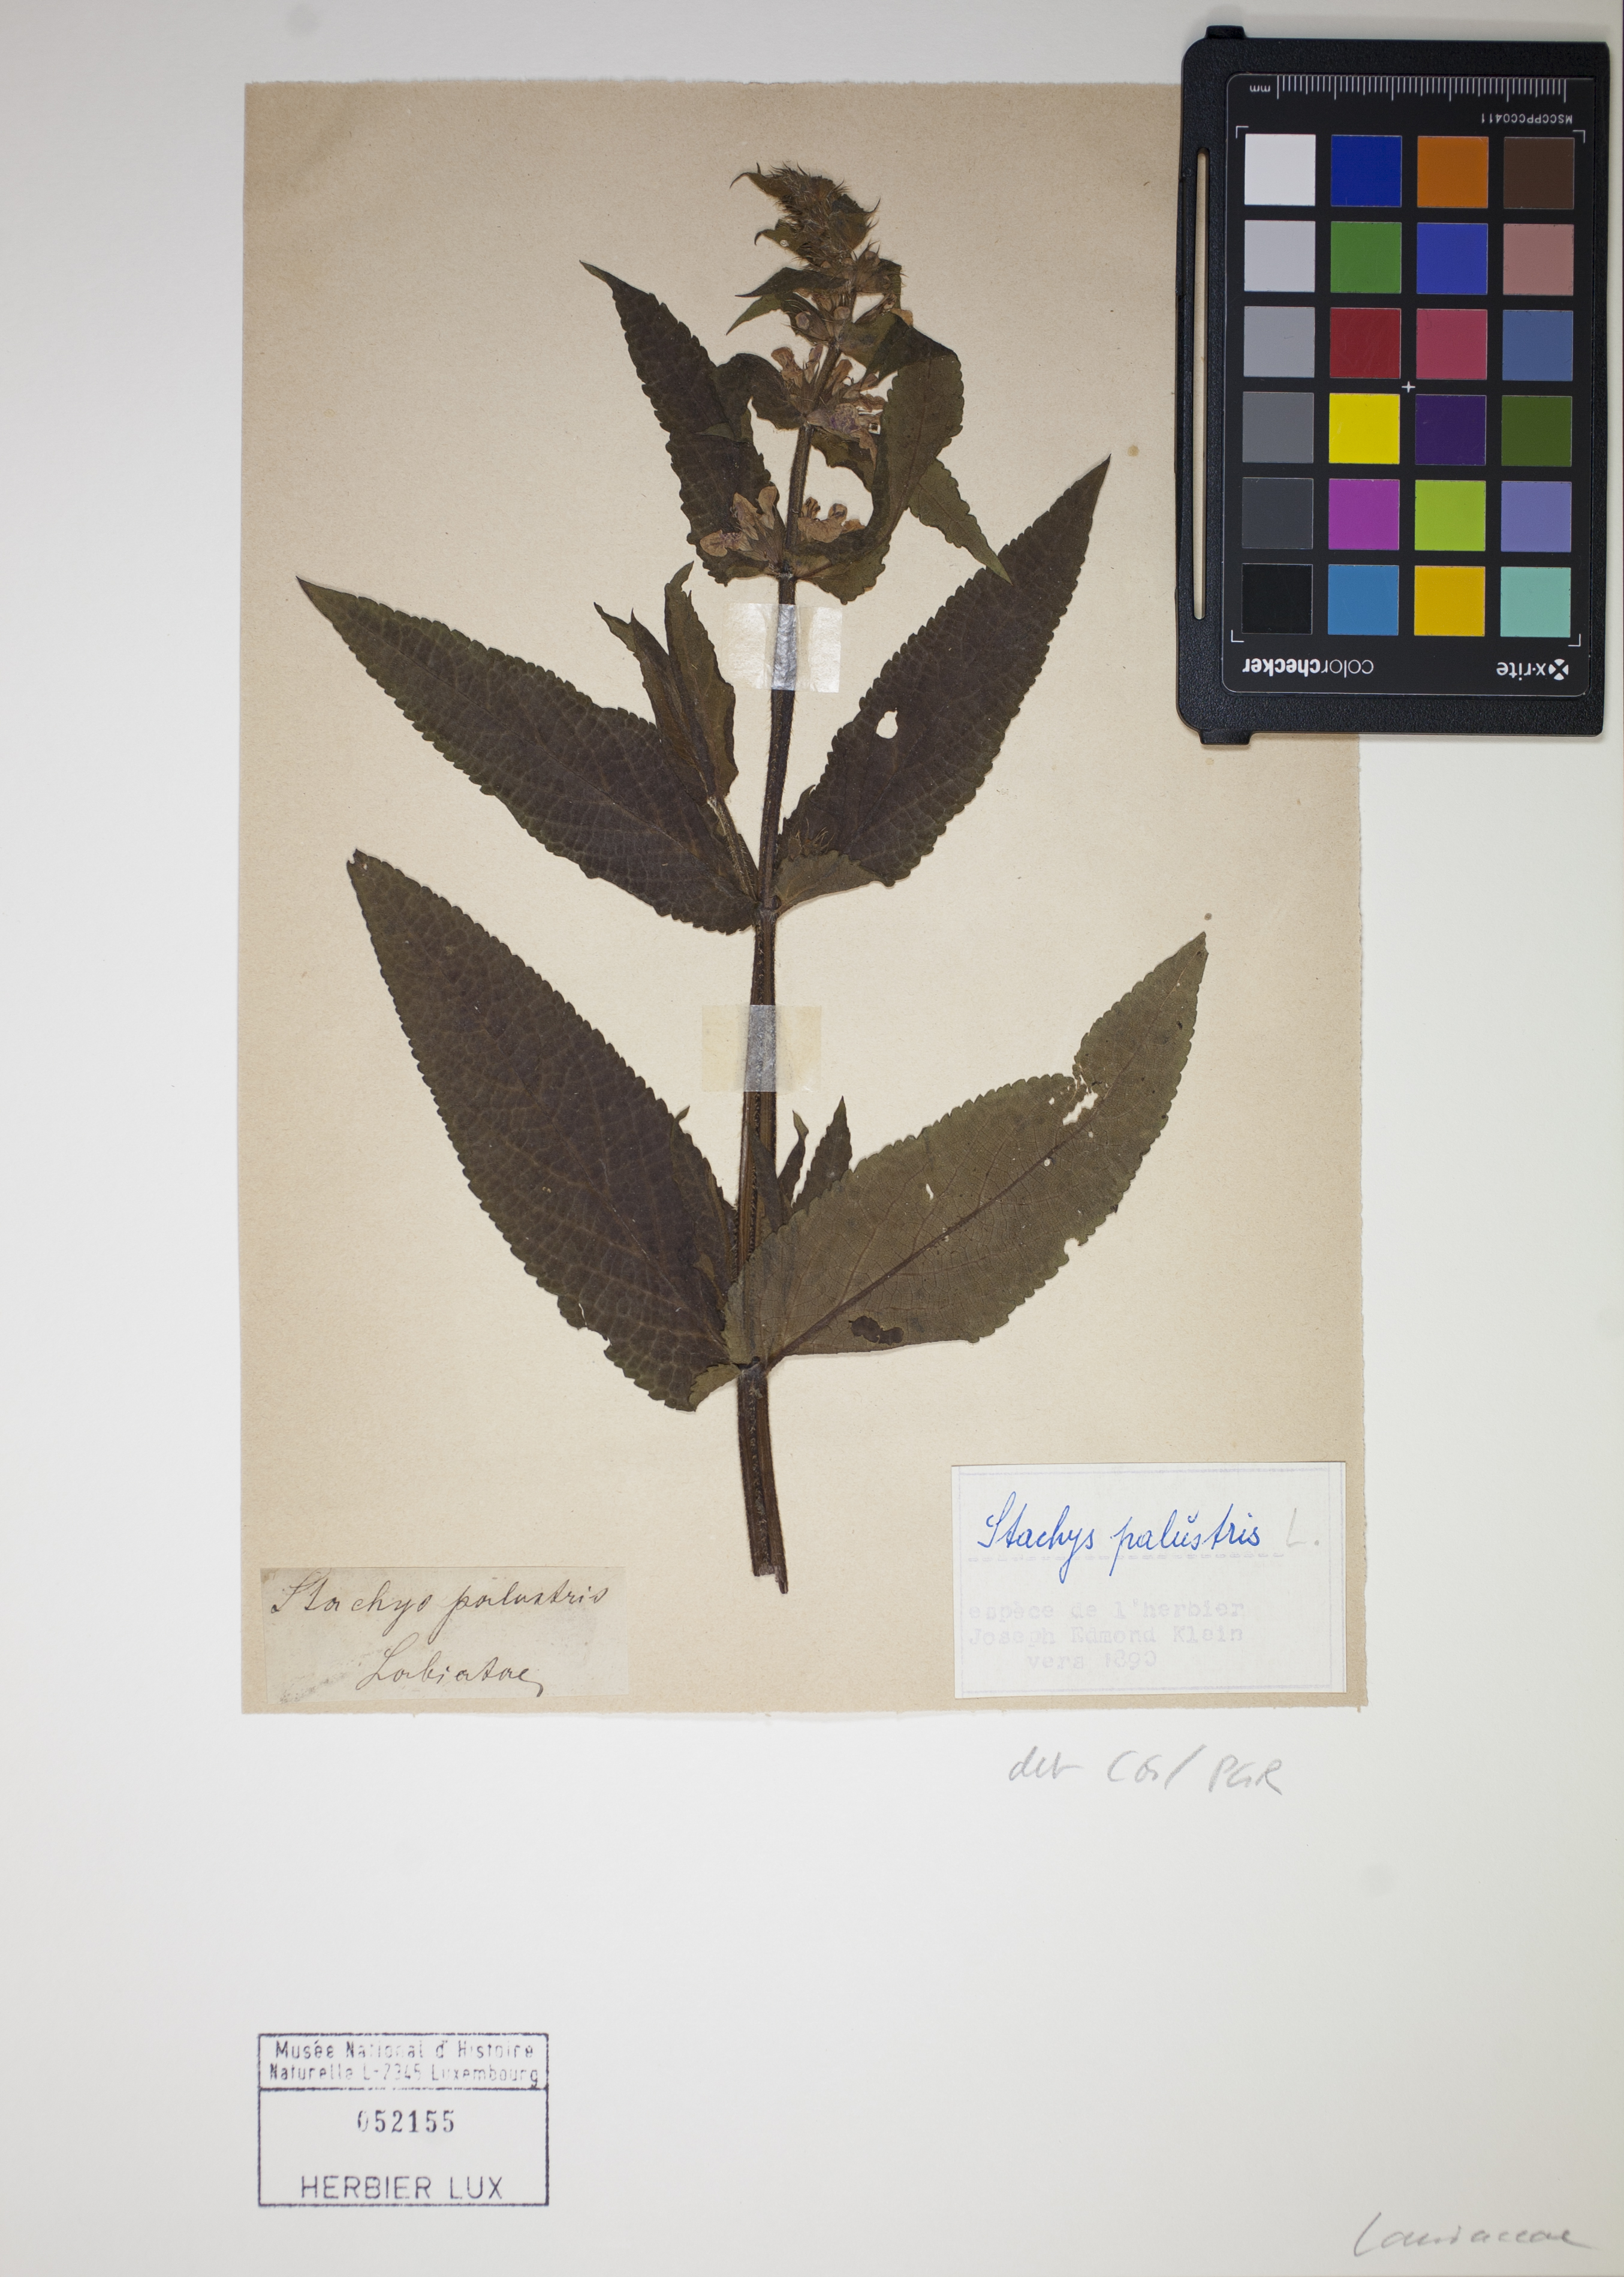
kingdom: Plantae
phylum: Tracheophyta
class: Magnoliopsida
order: Lamiales
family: Lamiaceae
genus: Stachys
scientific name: Stachys sylvatica
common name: Hedge woundwort
